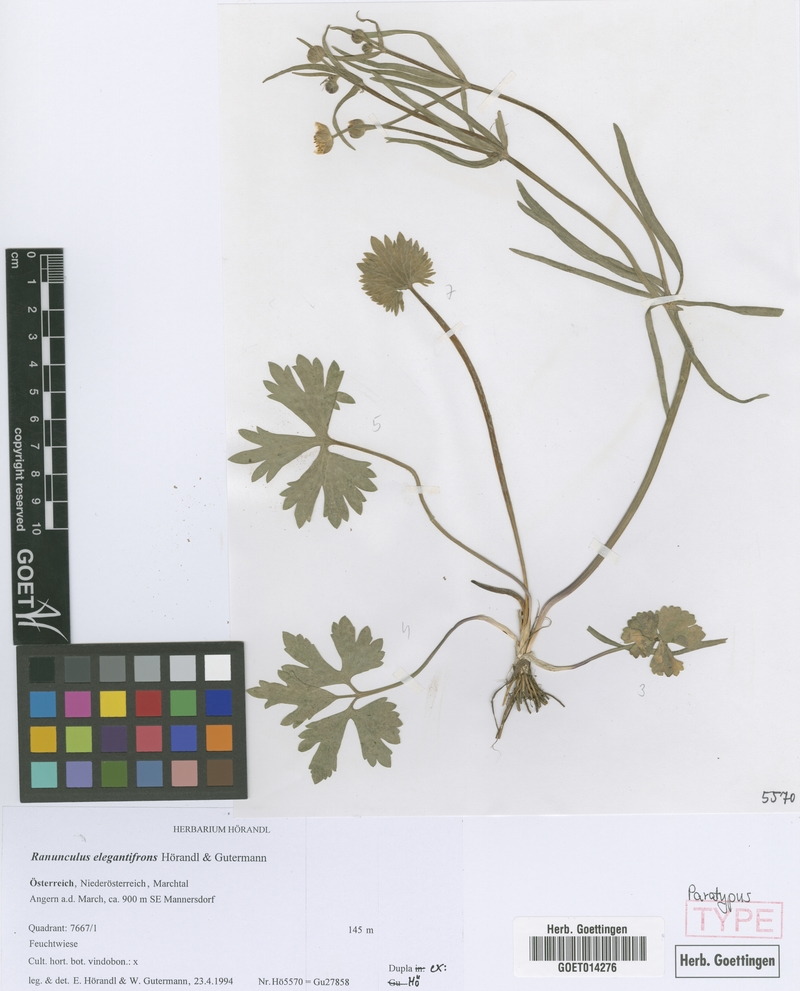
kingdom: Plantae
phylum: Tracheophyta
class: Magnoliopsida
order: Ranunculales
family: Ranunculaceae
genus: Ranunculus
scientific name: Ranunculus elegantifrons
